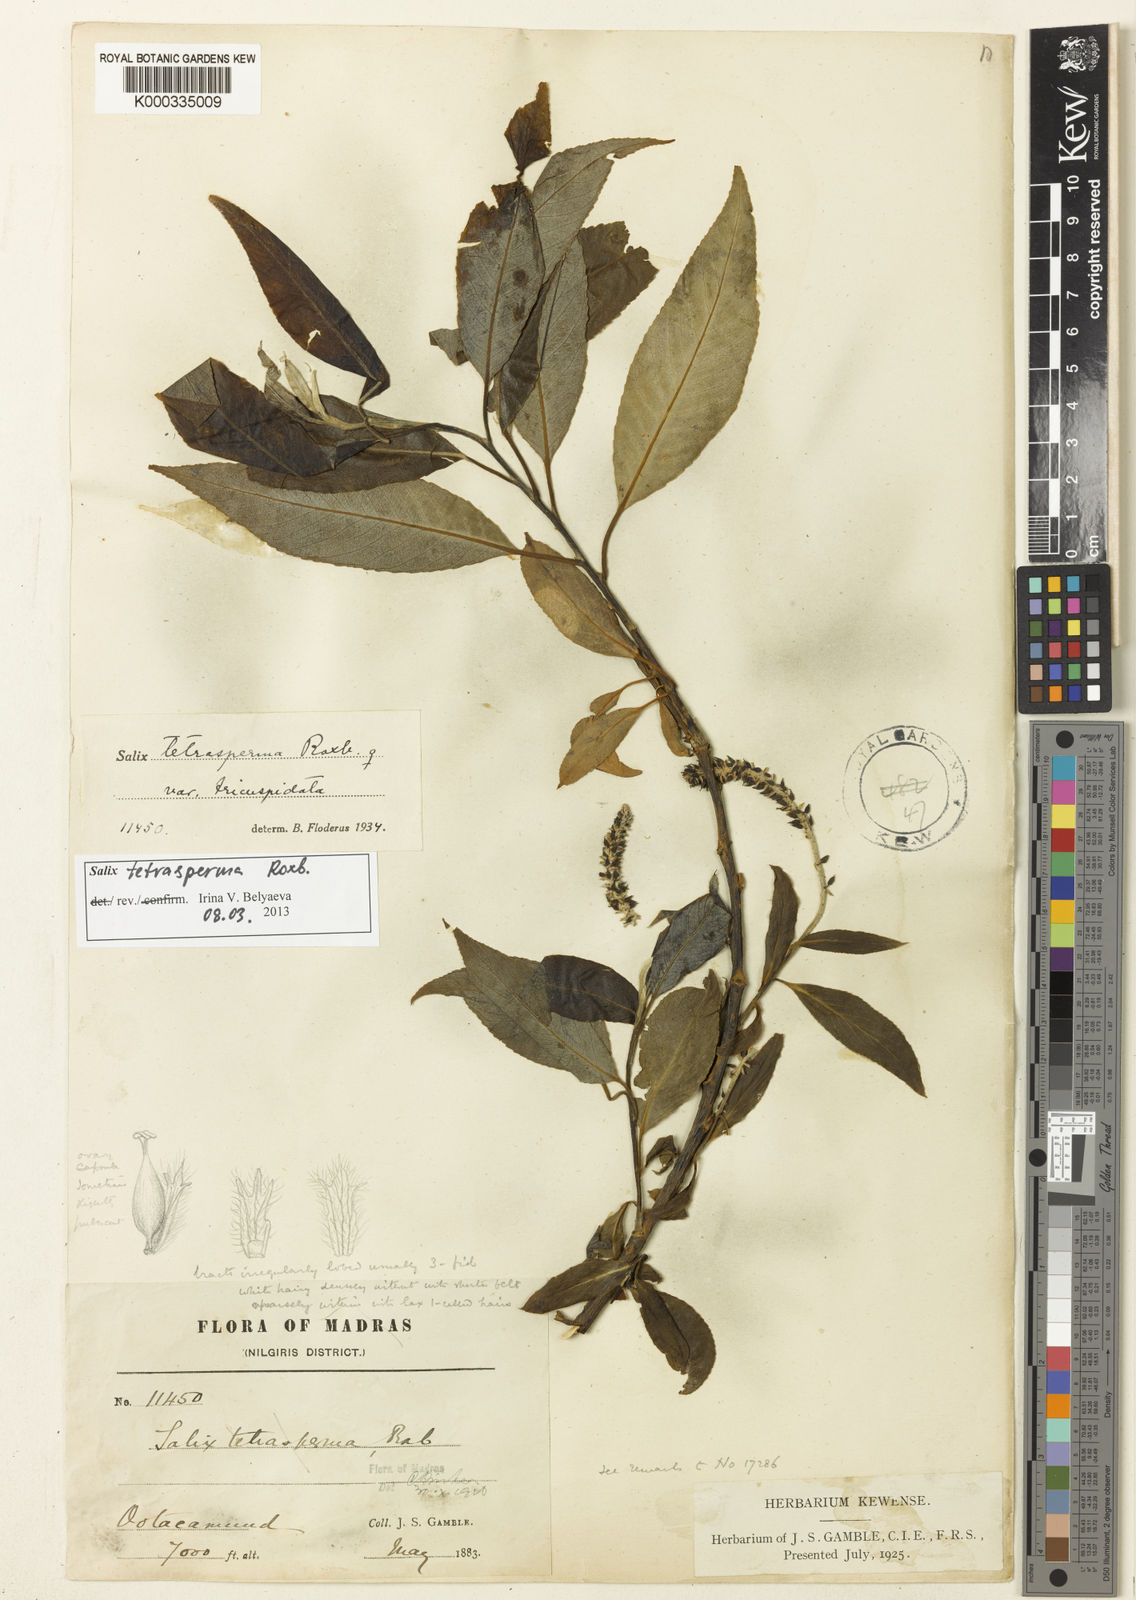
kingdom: Plantae
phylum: Tracheophyta
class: Magnoliopsida
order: Malpighiales
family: Salicaceae
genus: Salix
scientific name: Salix tetrasperma
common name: Indian willow
